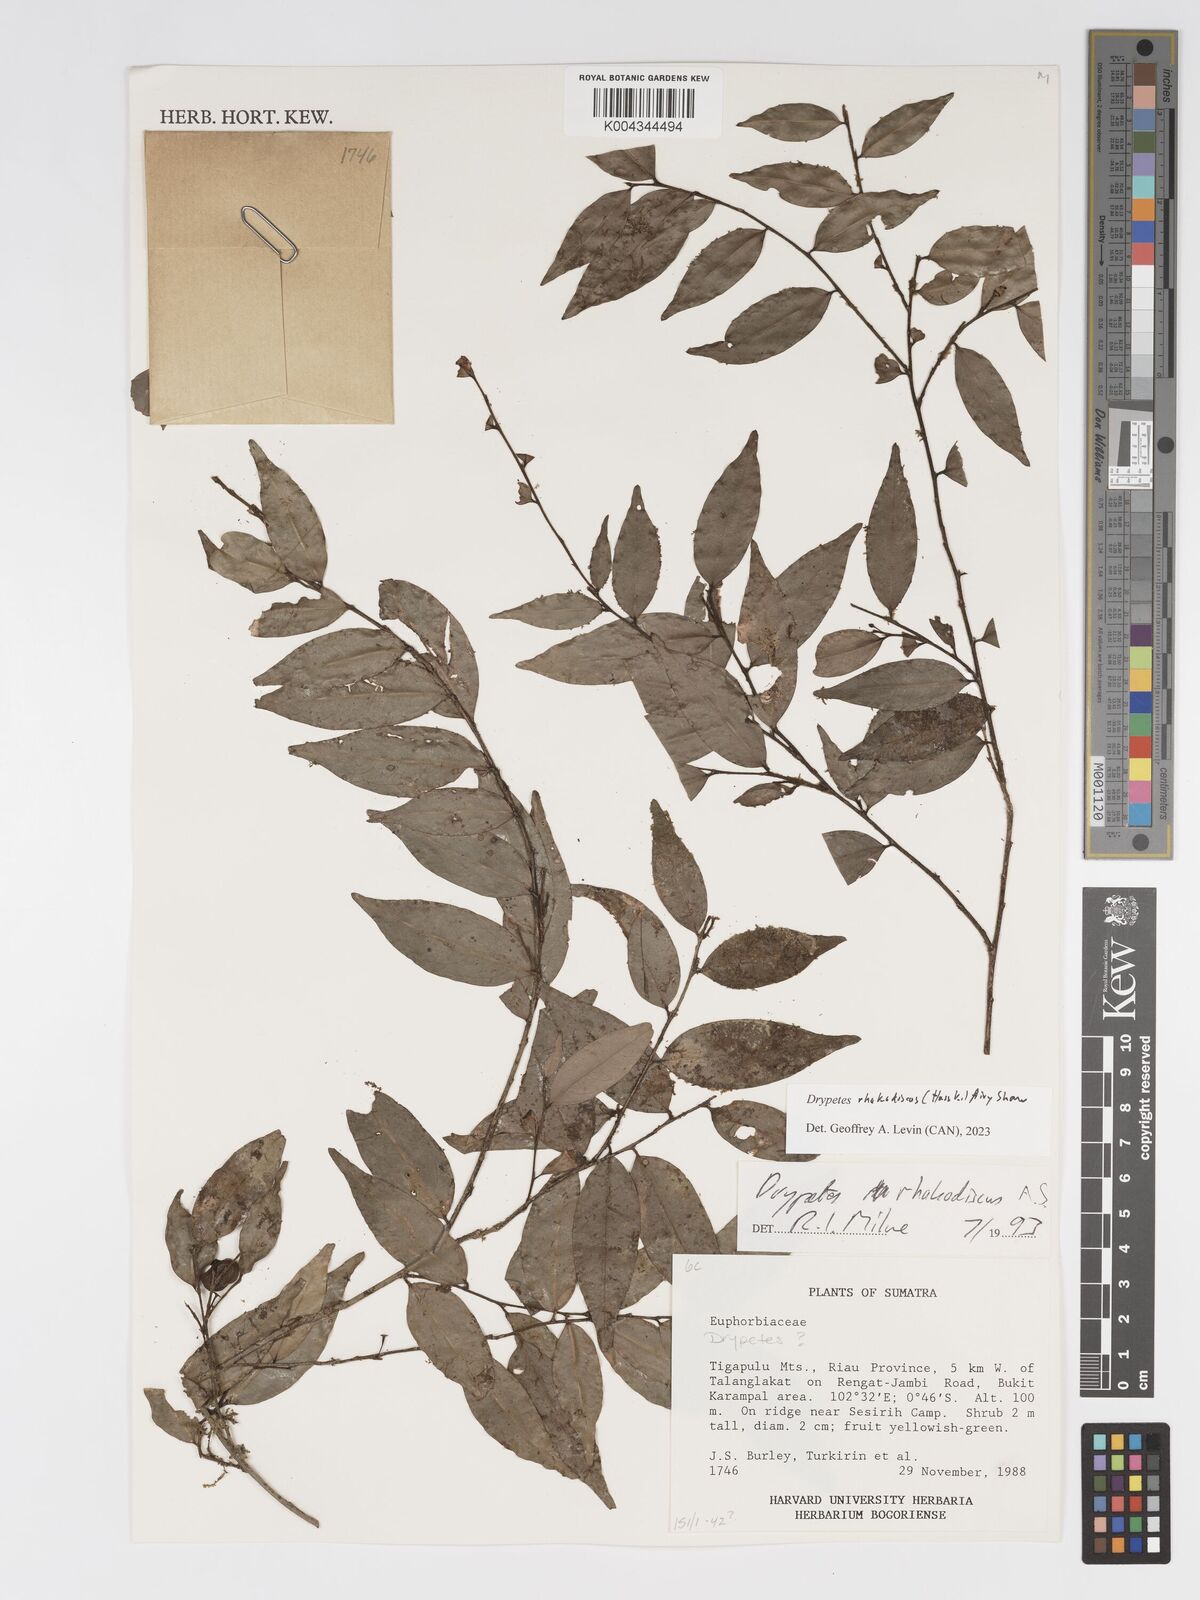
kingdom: Plantae
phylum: Tracheophyta
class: Magnoliopsida
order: Malpighiales
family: Putranjivaceae
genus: Drypetes
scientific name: Drypetes rhakodiskos
